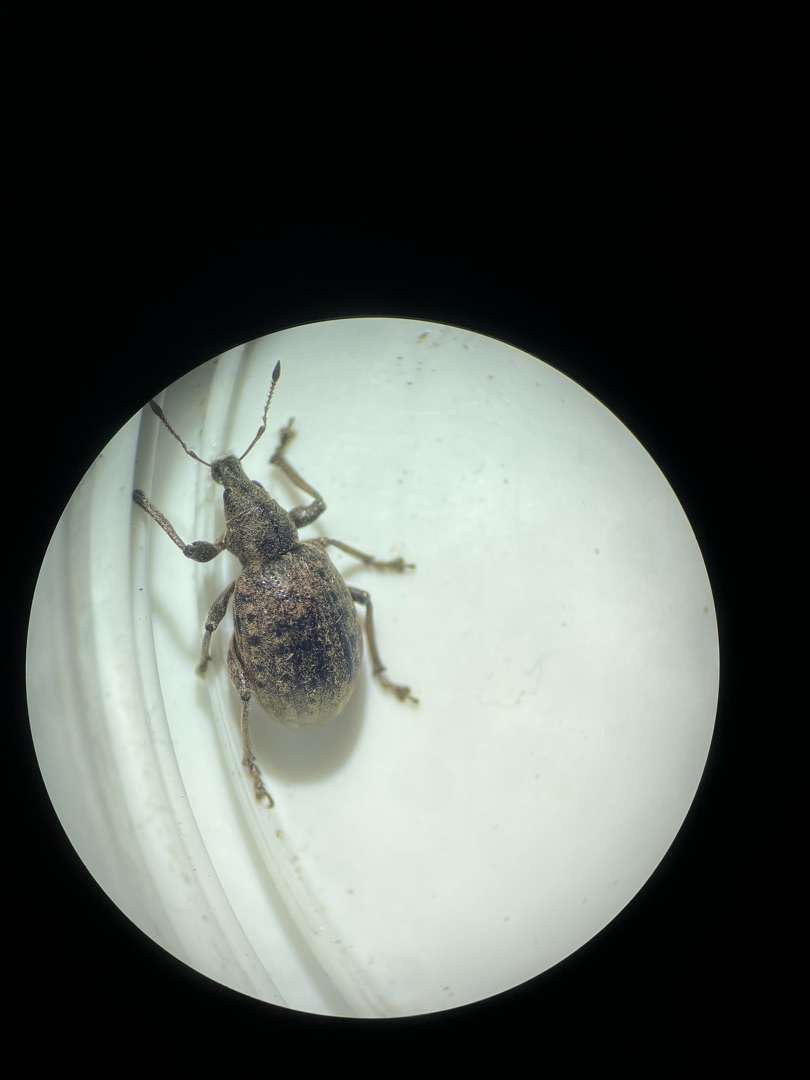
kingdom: Animalia
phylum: Arthropoda
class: Insecta
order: Coleoptera
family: Curculionidae
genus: Liophloeus
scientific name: Liophloeus tessulatus
